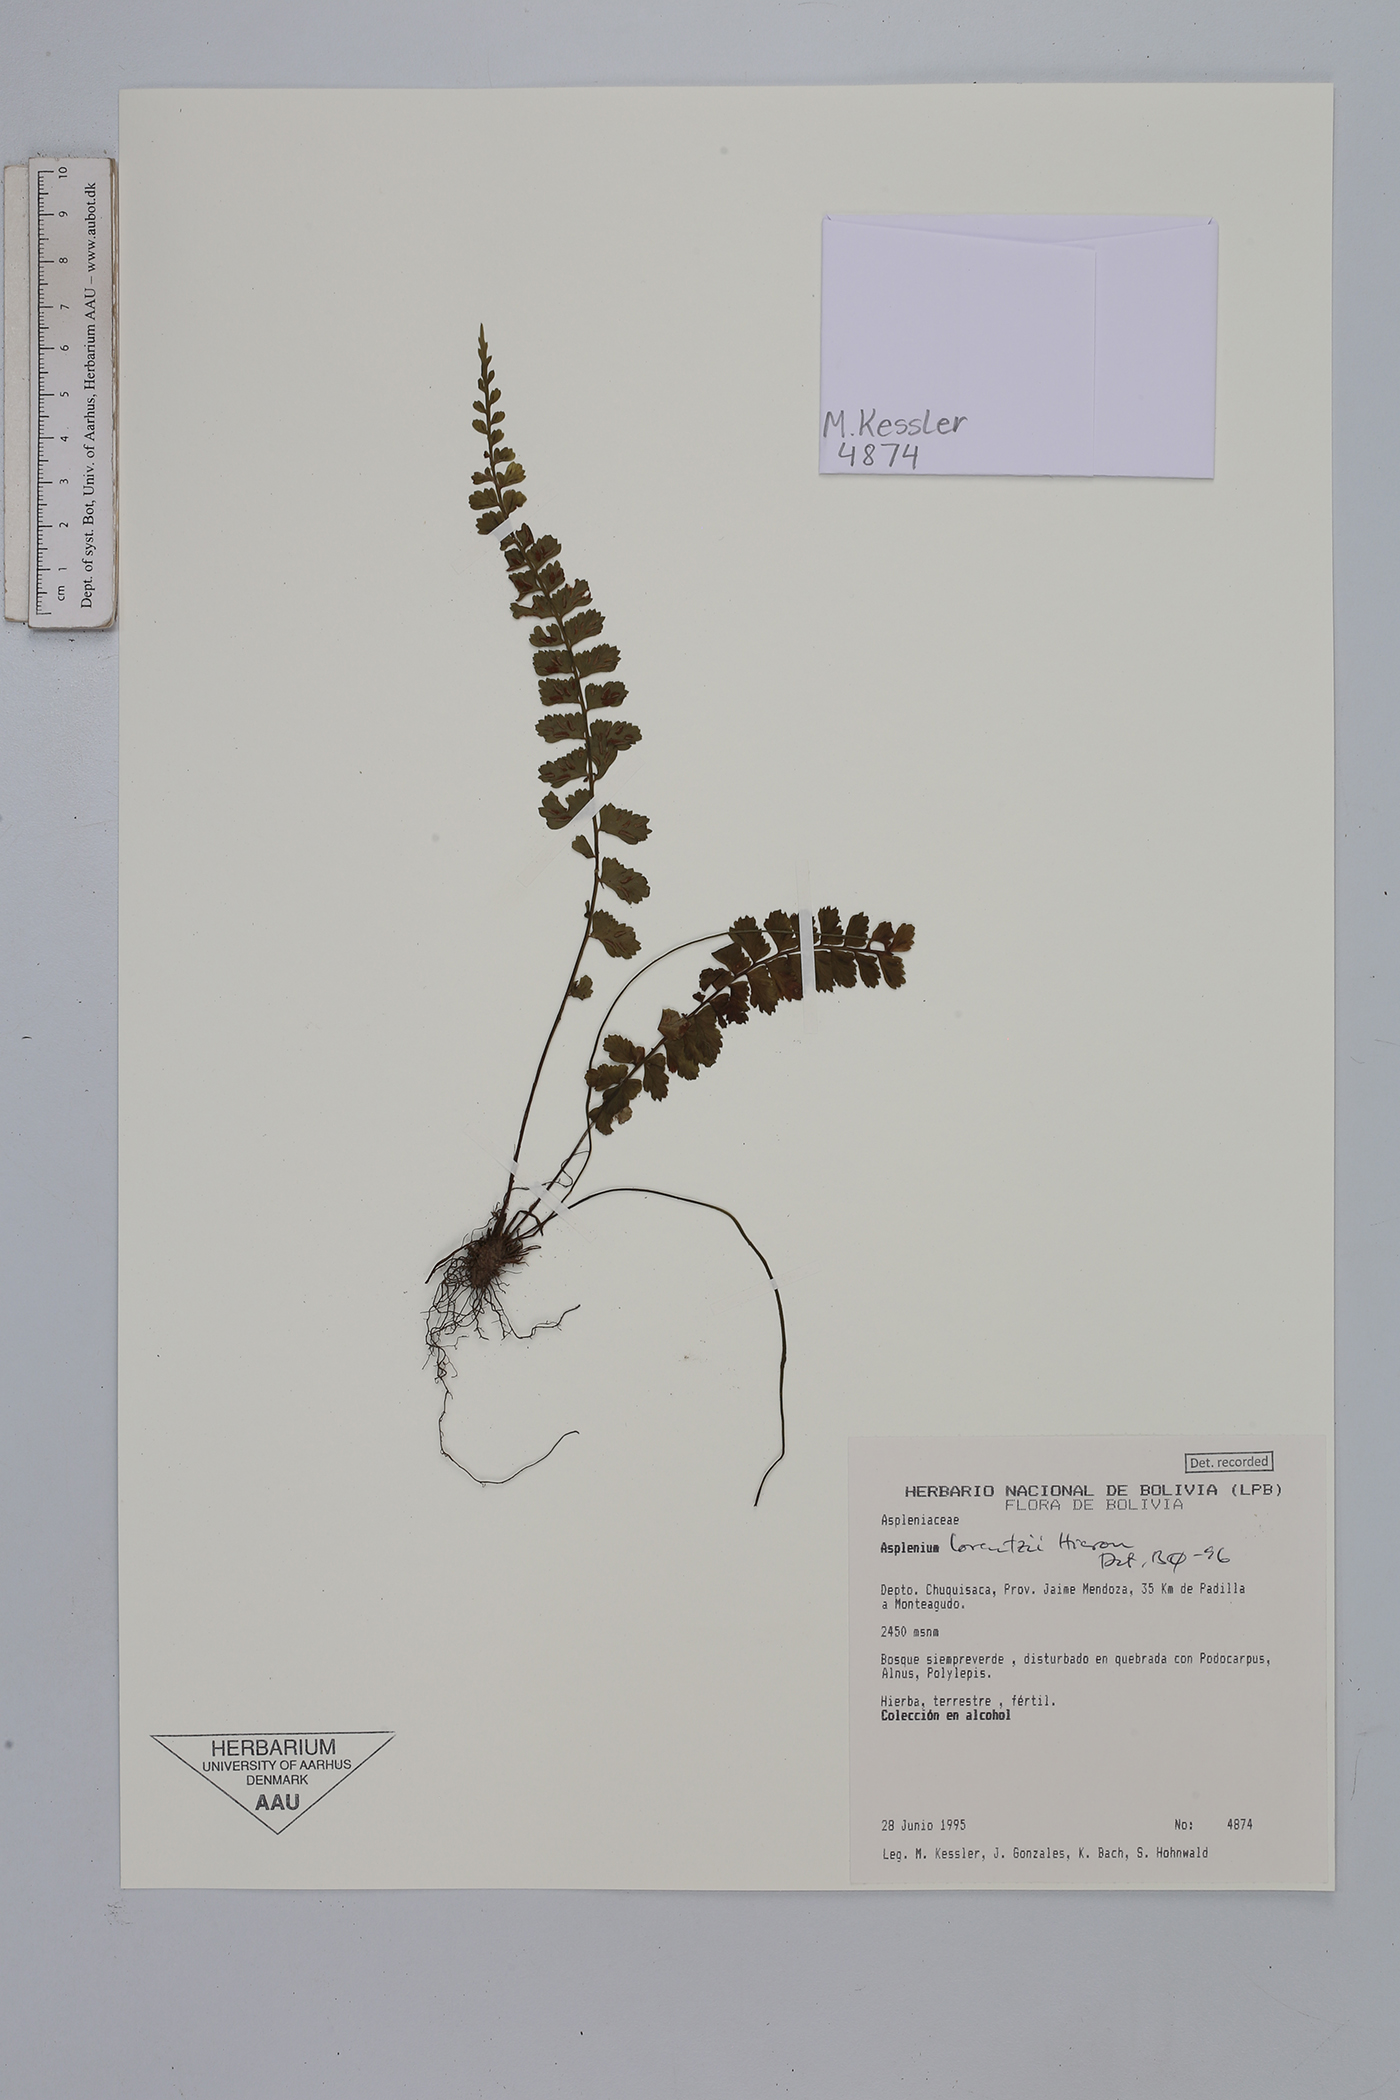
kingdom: Plantae
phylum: Tracheophyta
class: Polypodiopsida
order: Polypodiales
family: Aspleniaceae
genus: Asplenium
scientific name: Asplenium lorentzii
